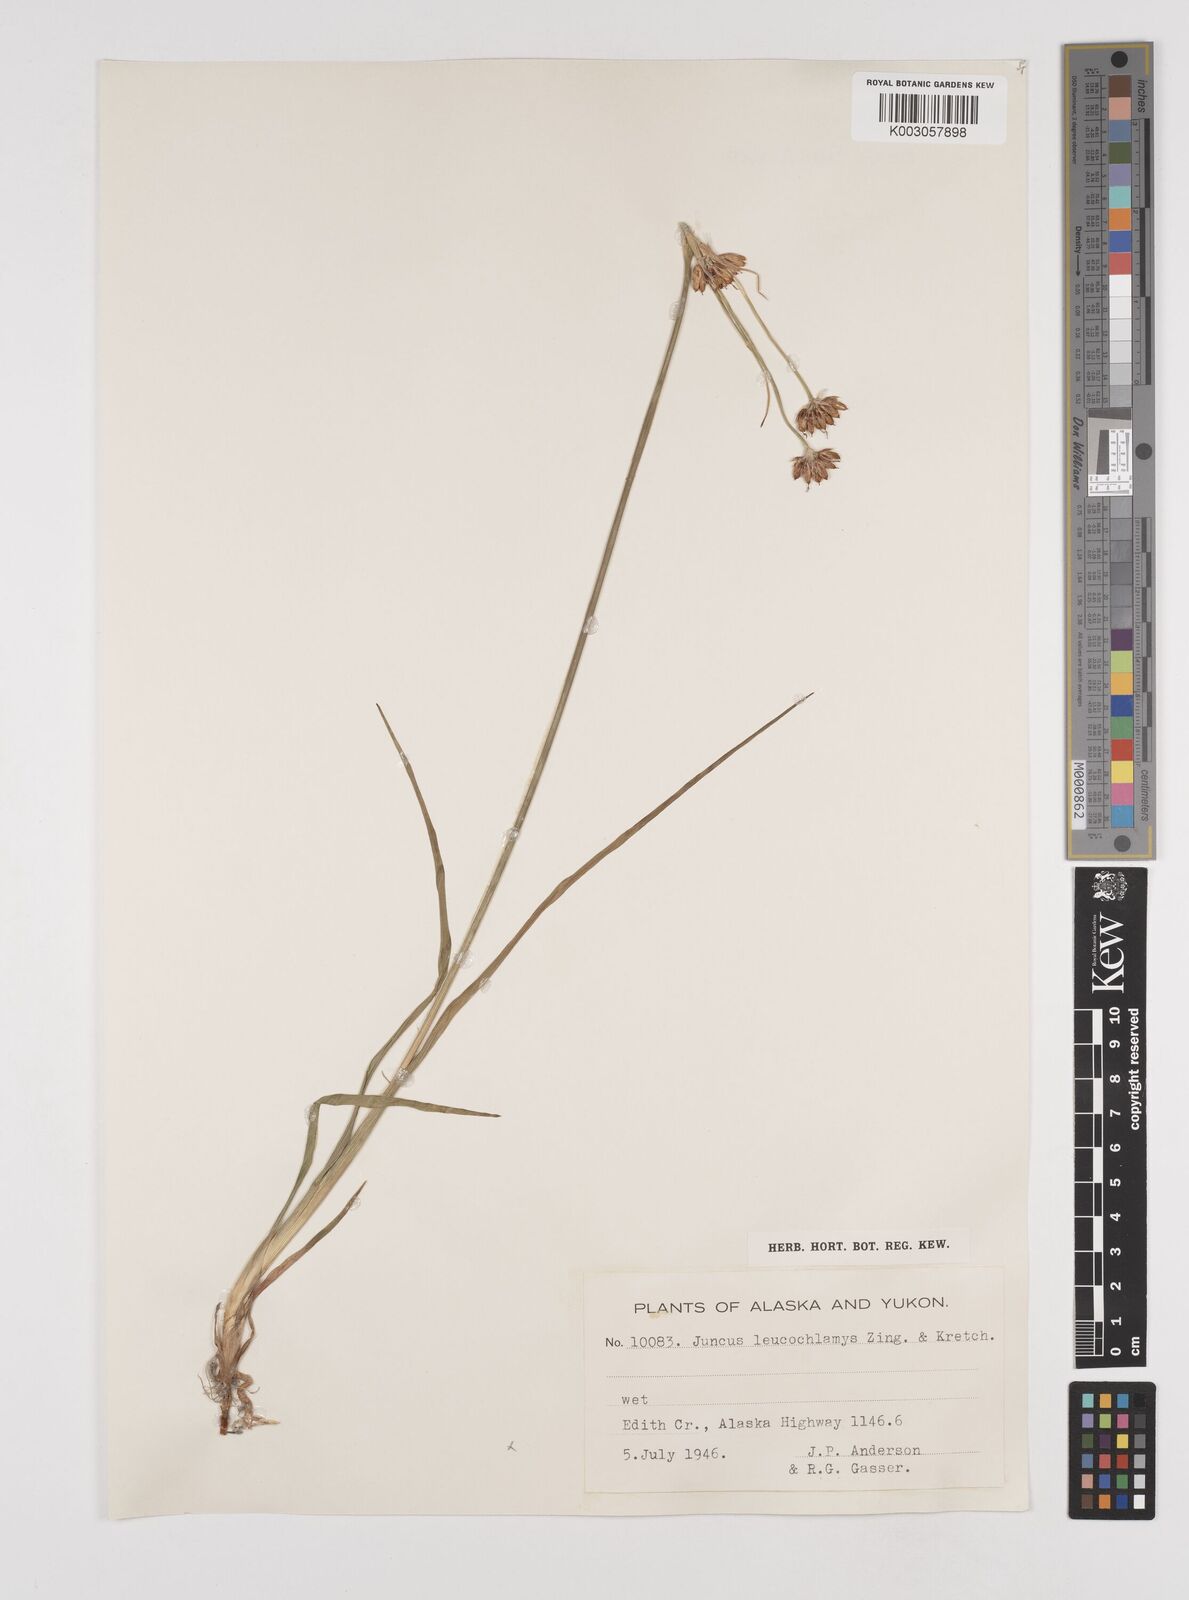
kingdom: Plantae
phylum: Tracheophyta
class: Liliopsida
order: Poales
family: Juncaceae
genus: Juncus
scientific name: Juncus castaneus
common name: Chestnut rush
